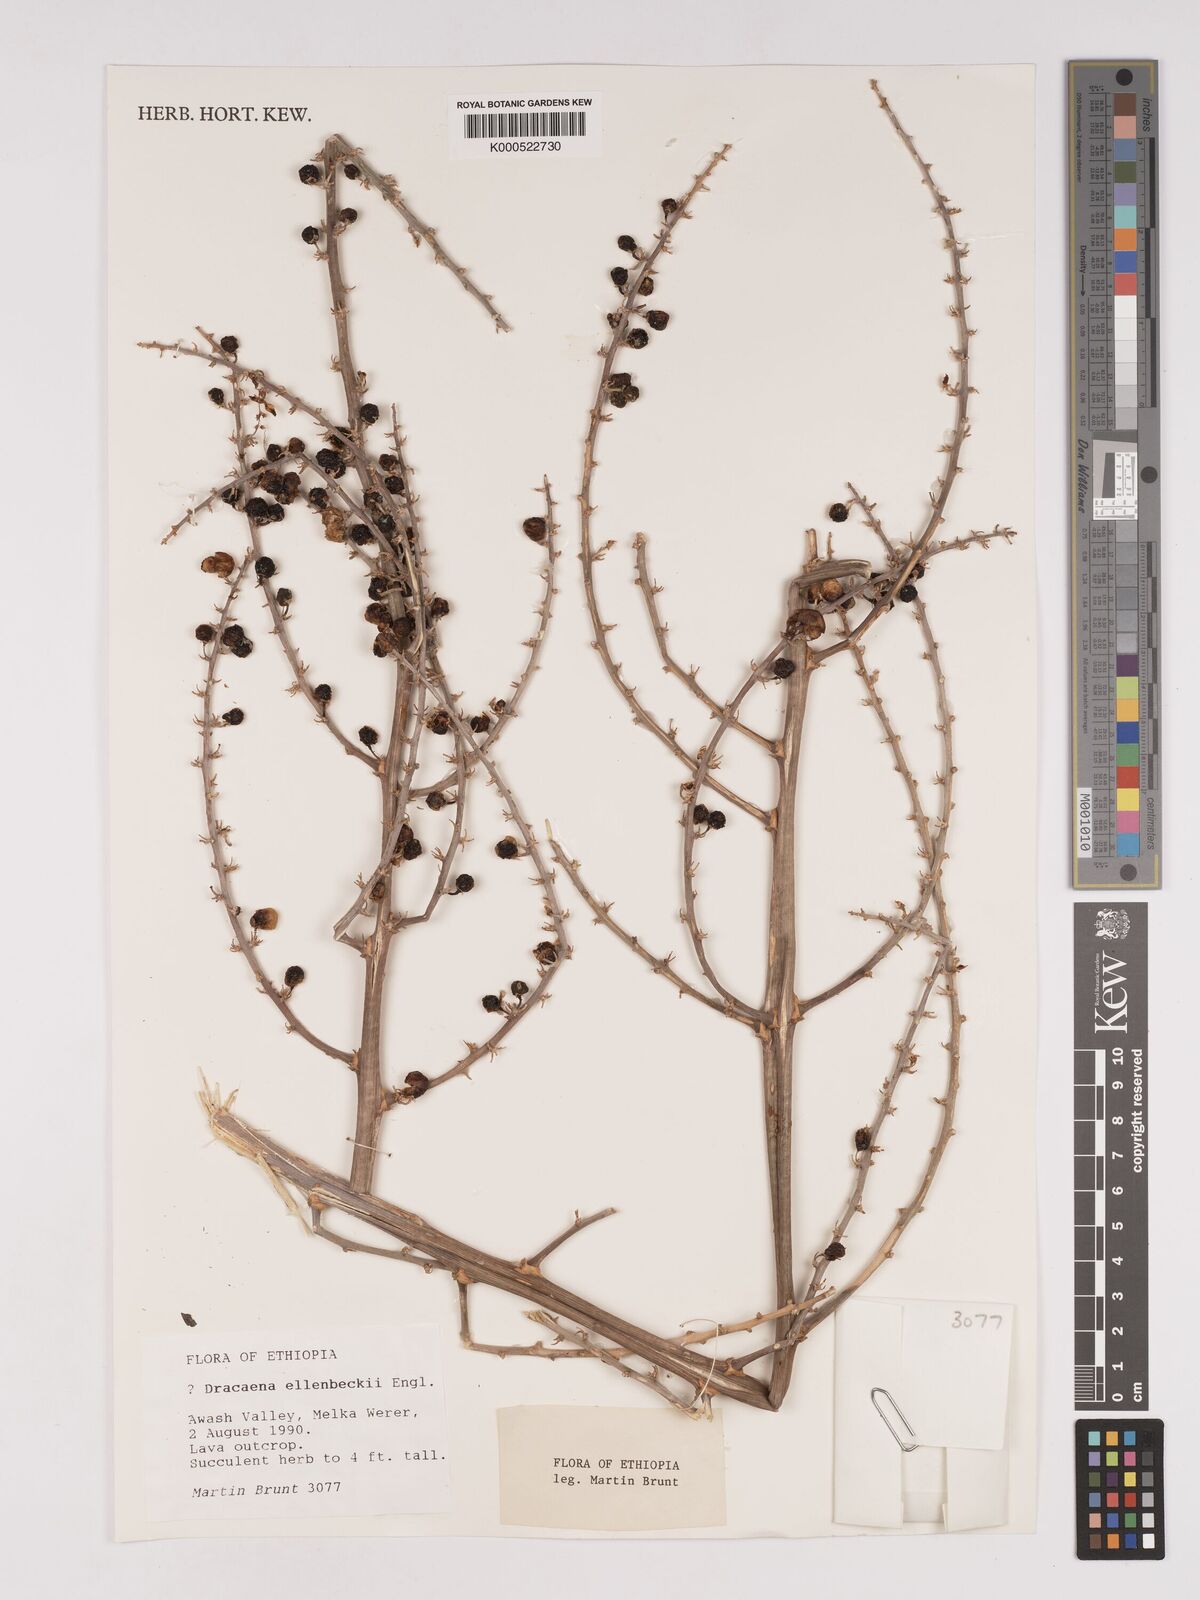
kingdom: Plantae
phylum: Tracheophyta
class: Liliopsida
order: Asparagales
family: Asparagaceae
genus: Dracaena
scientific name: Dracaena elliptica
